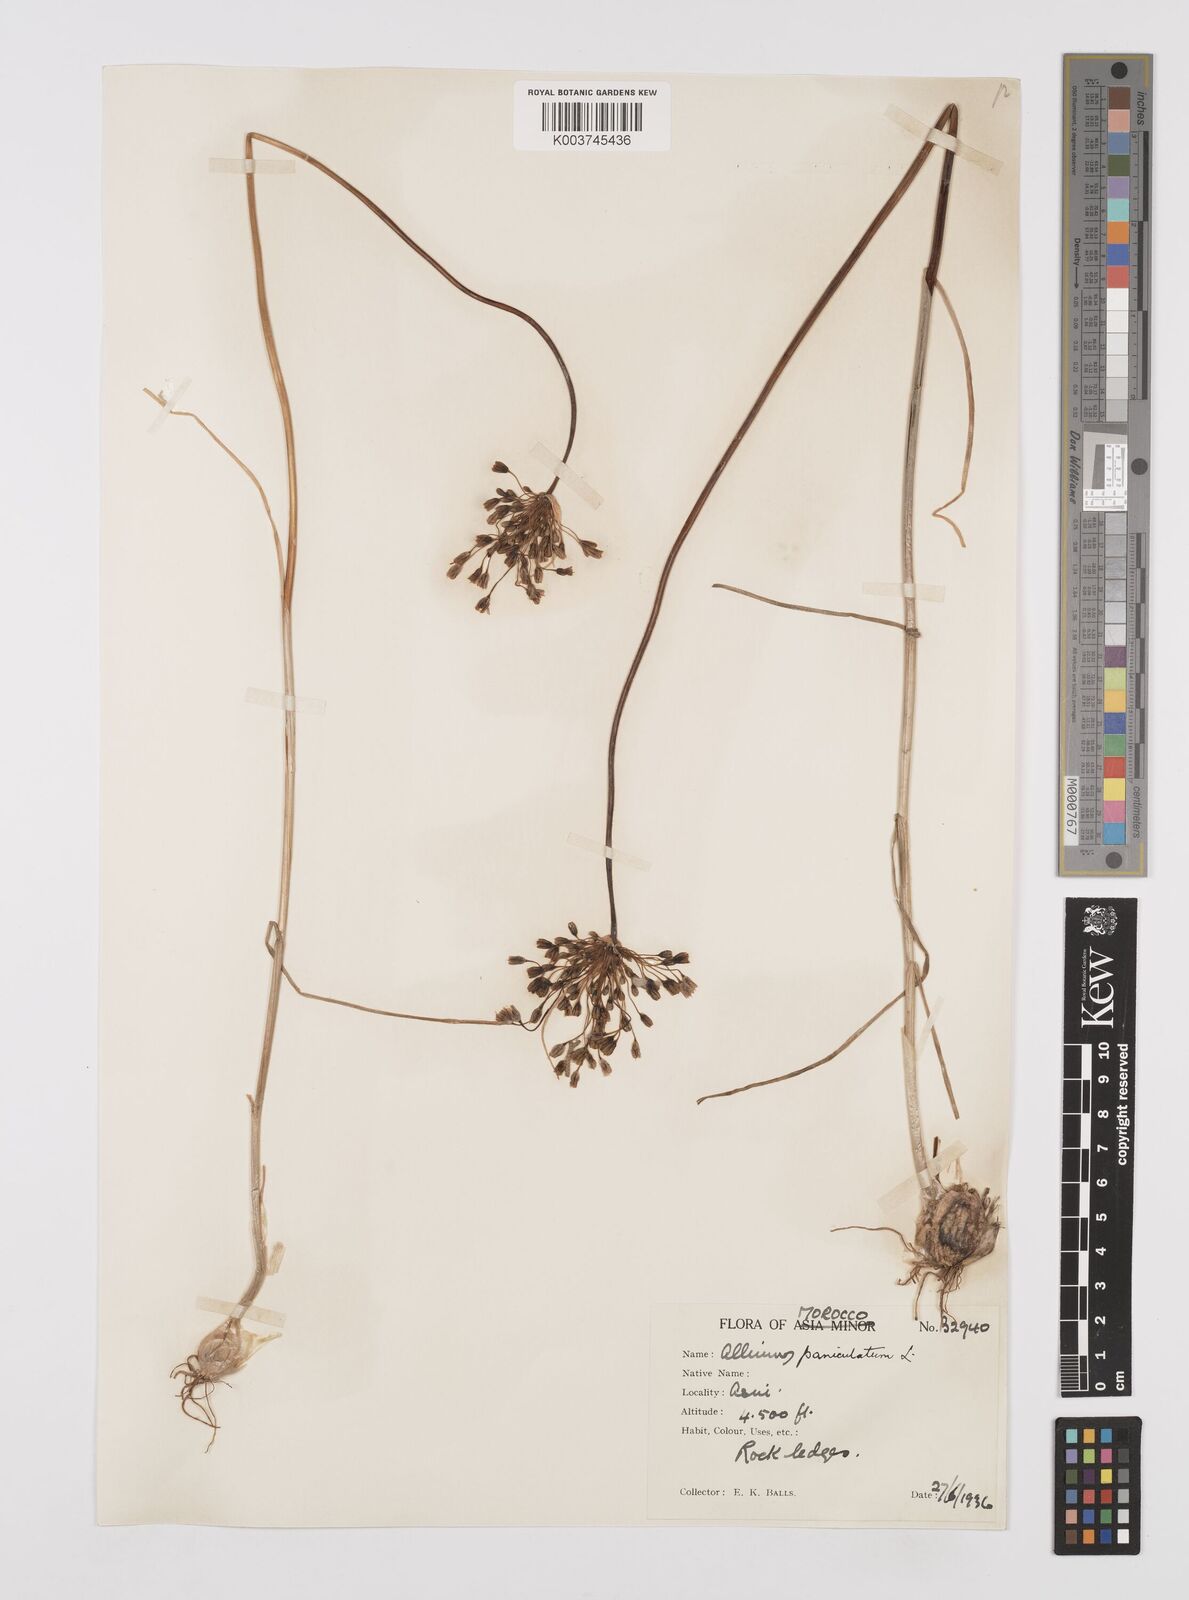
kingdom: Plantae
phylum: Tracheophyta
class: Liliopsida
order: Asparagales
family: Amaryllidaceae
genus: Allium
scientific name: Allium paniculatum
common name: Pale garlic
